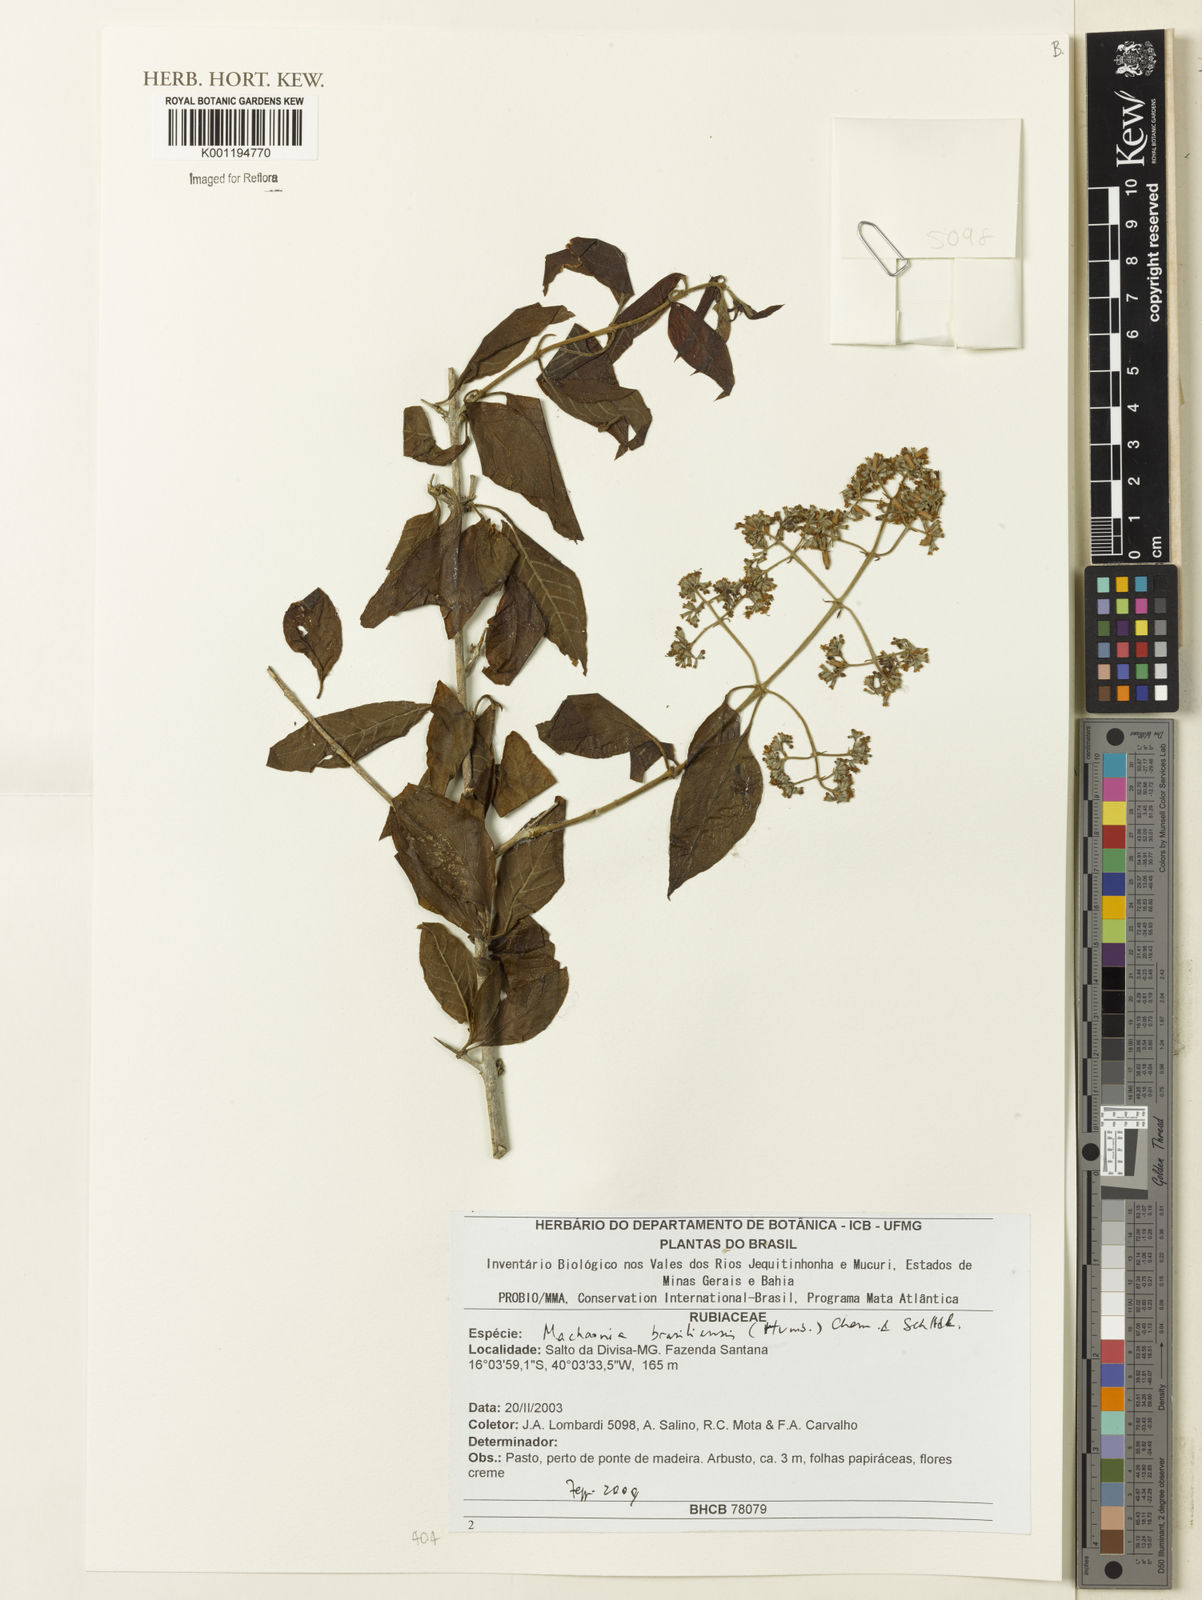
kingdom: Plantae
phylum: Tracheophyta
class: Magnoliopsida
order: Gentianales
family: Rubiaceae
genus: Machaonia
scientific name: Machaonia brasiliensis
